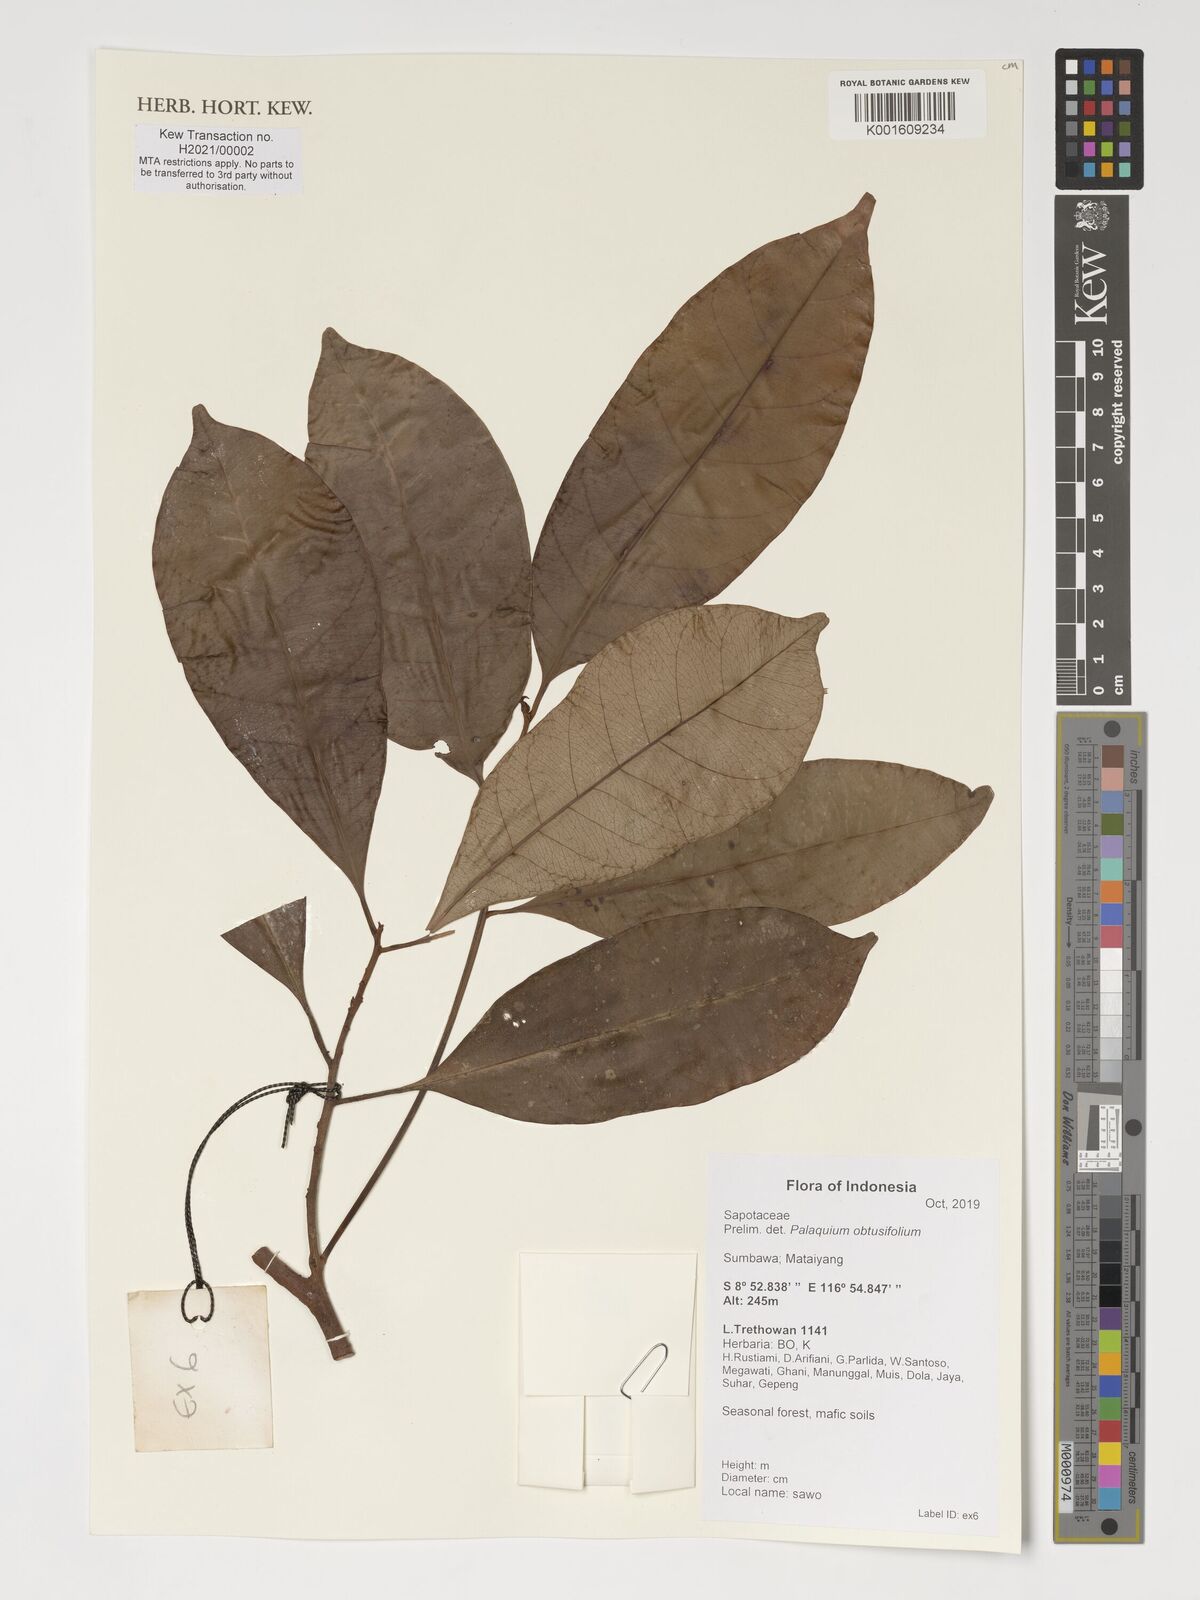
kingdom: Plantae
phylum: Tracheophyta
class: Magnoliopsida
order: Ericales
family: Sapotaceae
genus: Palaquium
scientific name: Palaquium obtusifolium
